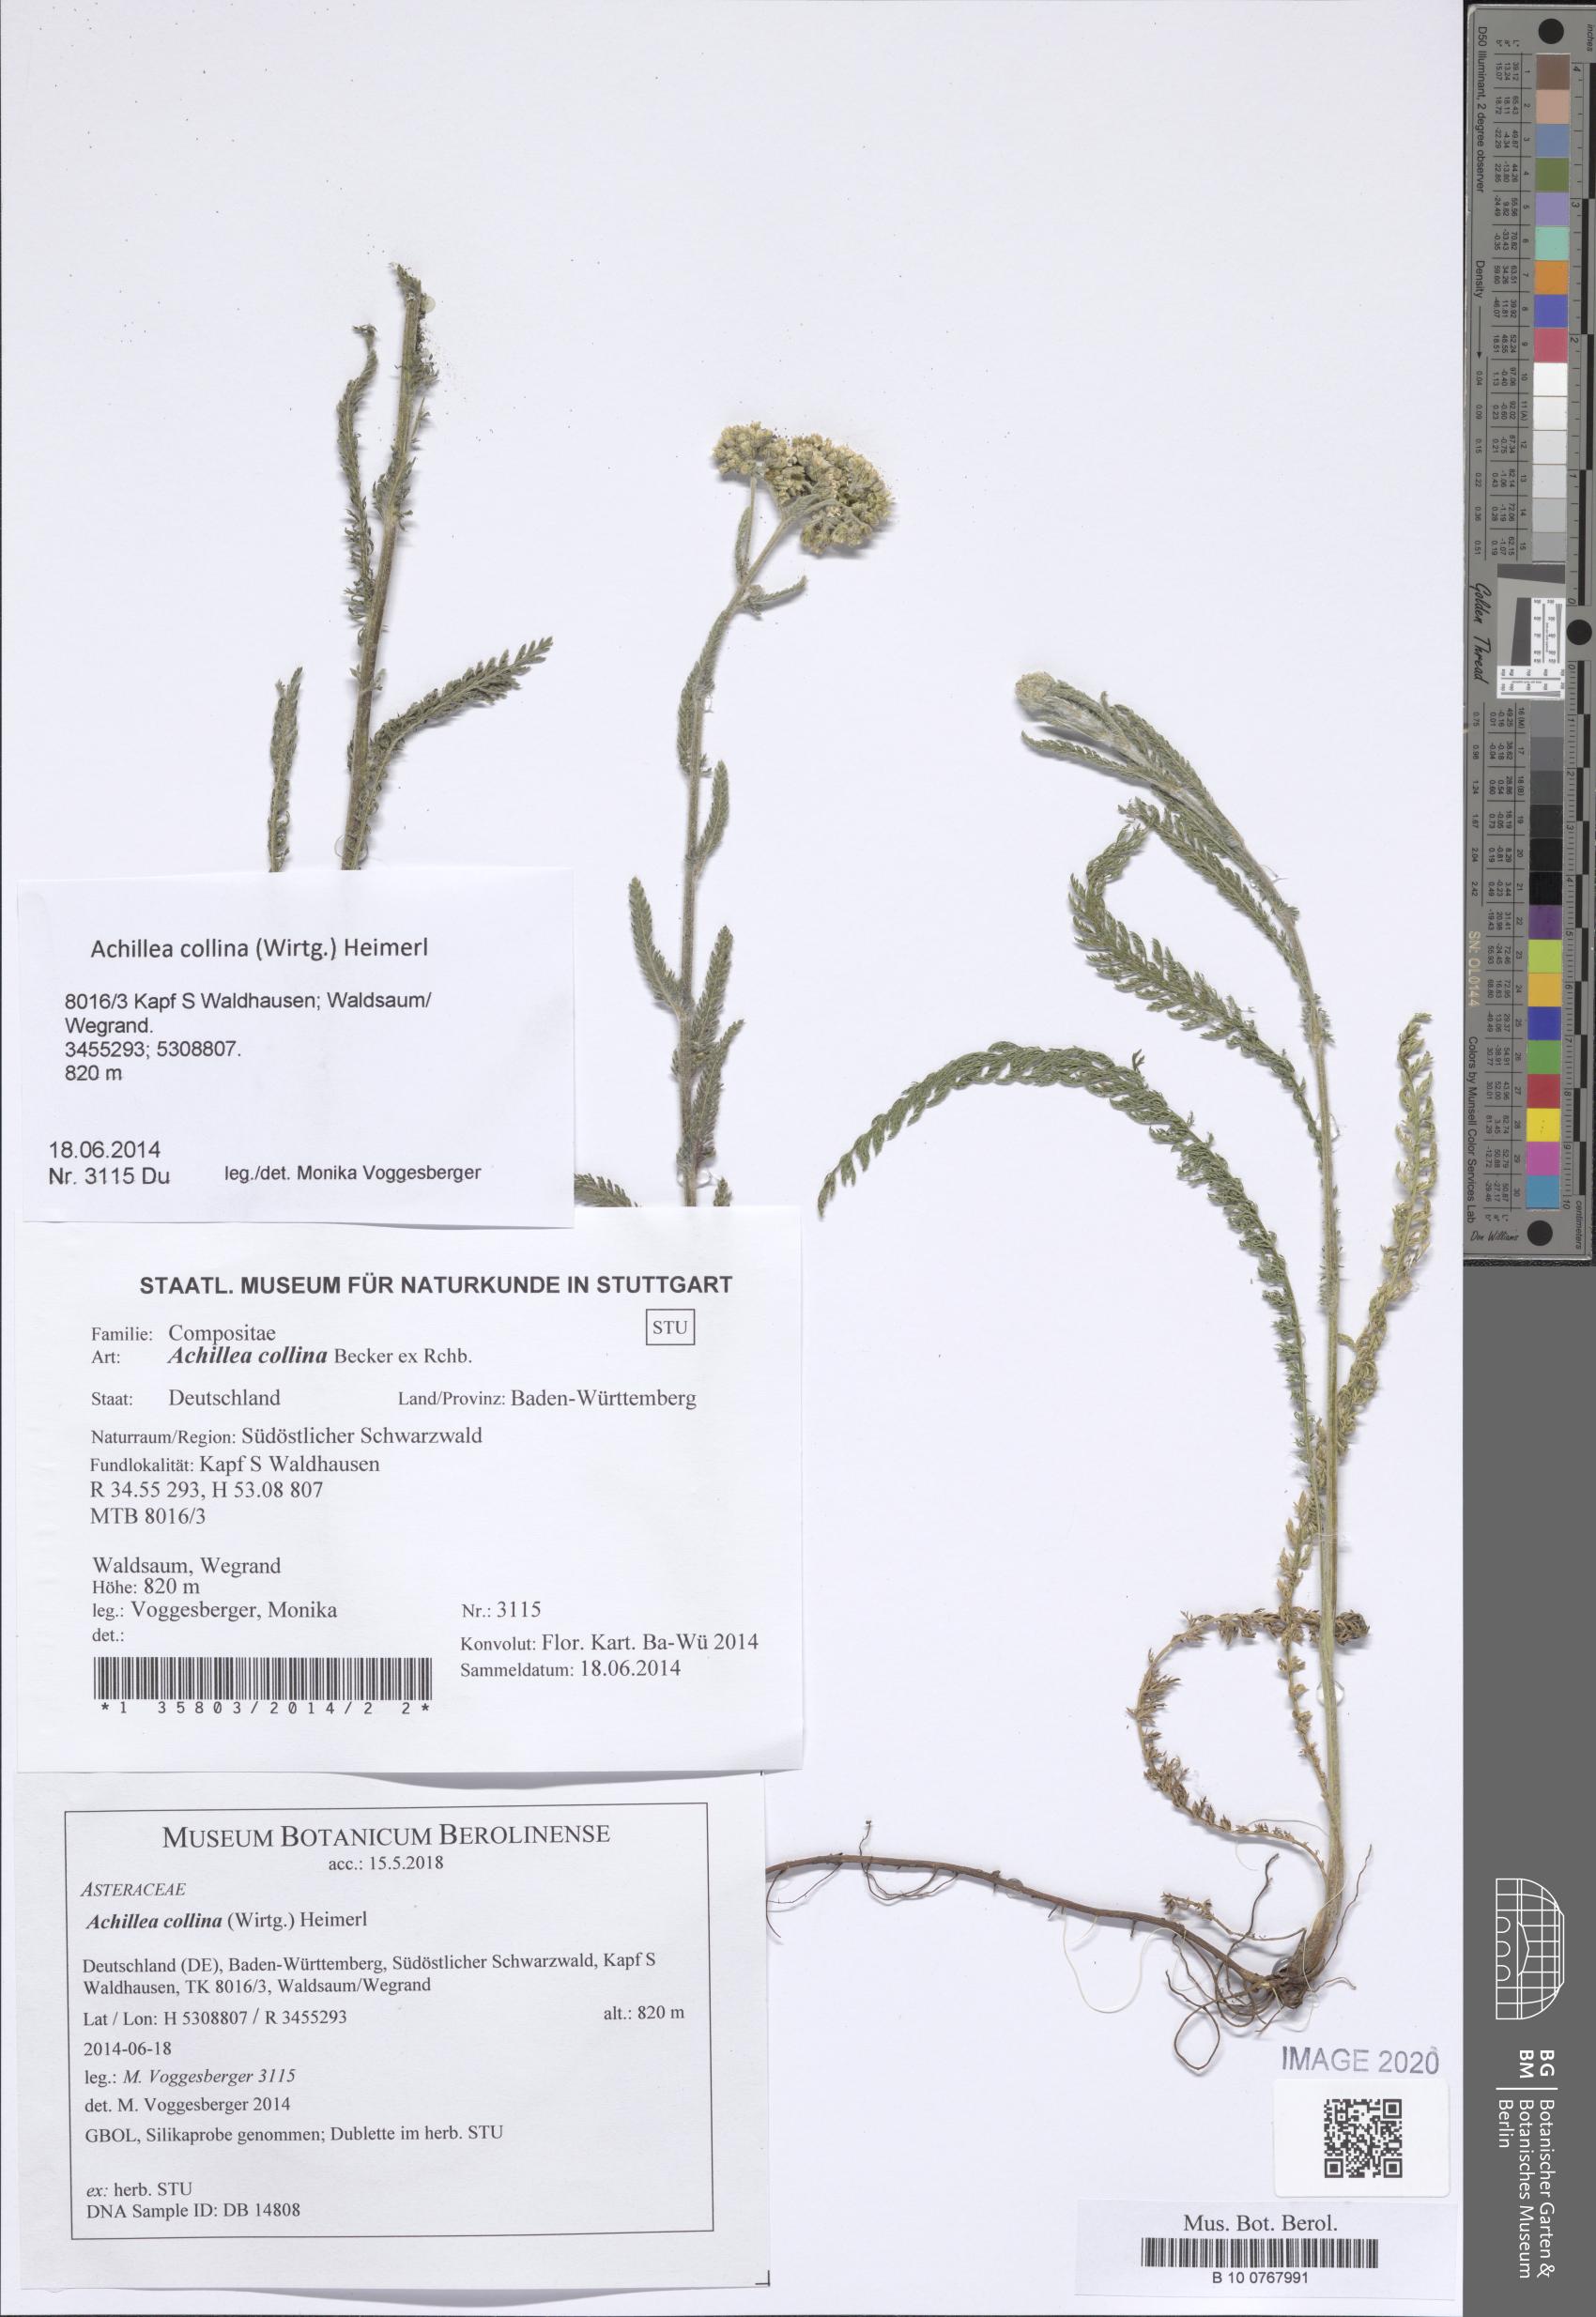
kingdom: Plantae
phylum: Tracheophyta
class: Magnoliopsida
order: Asterales
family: Asteraceae
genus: Achillea
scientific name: Achillea collina
